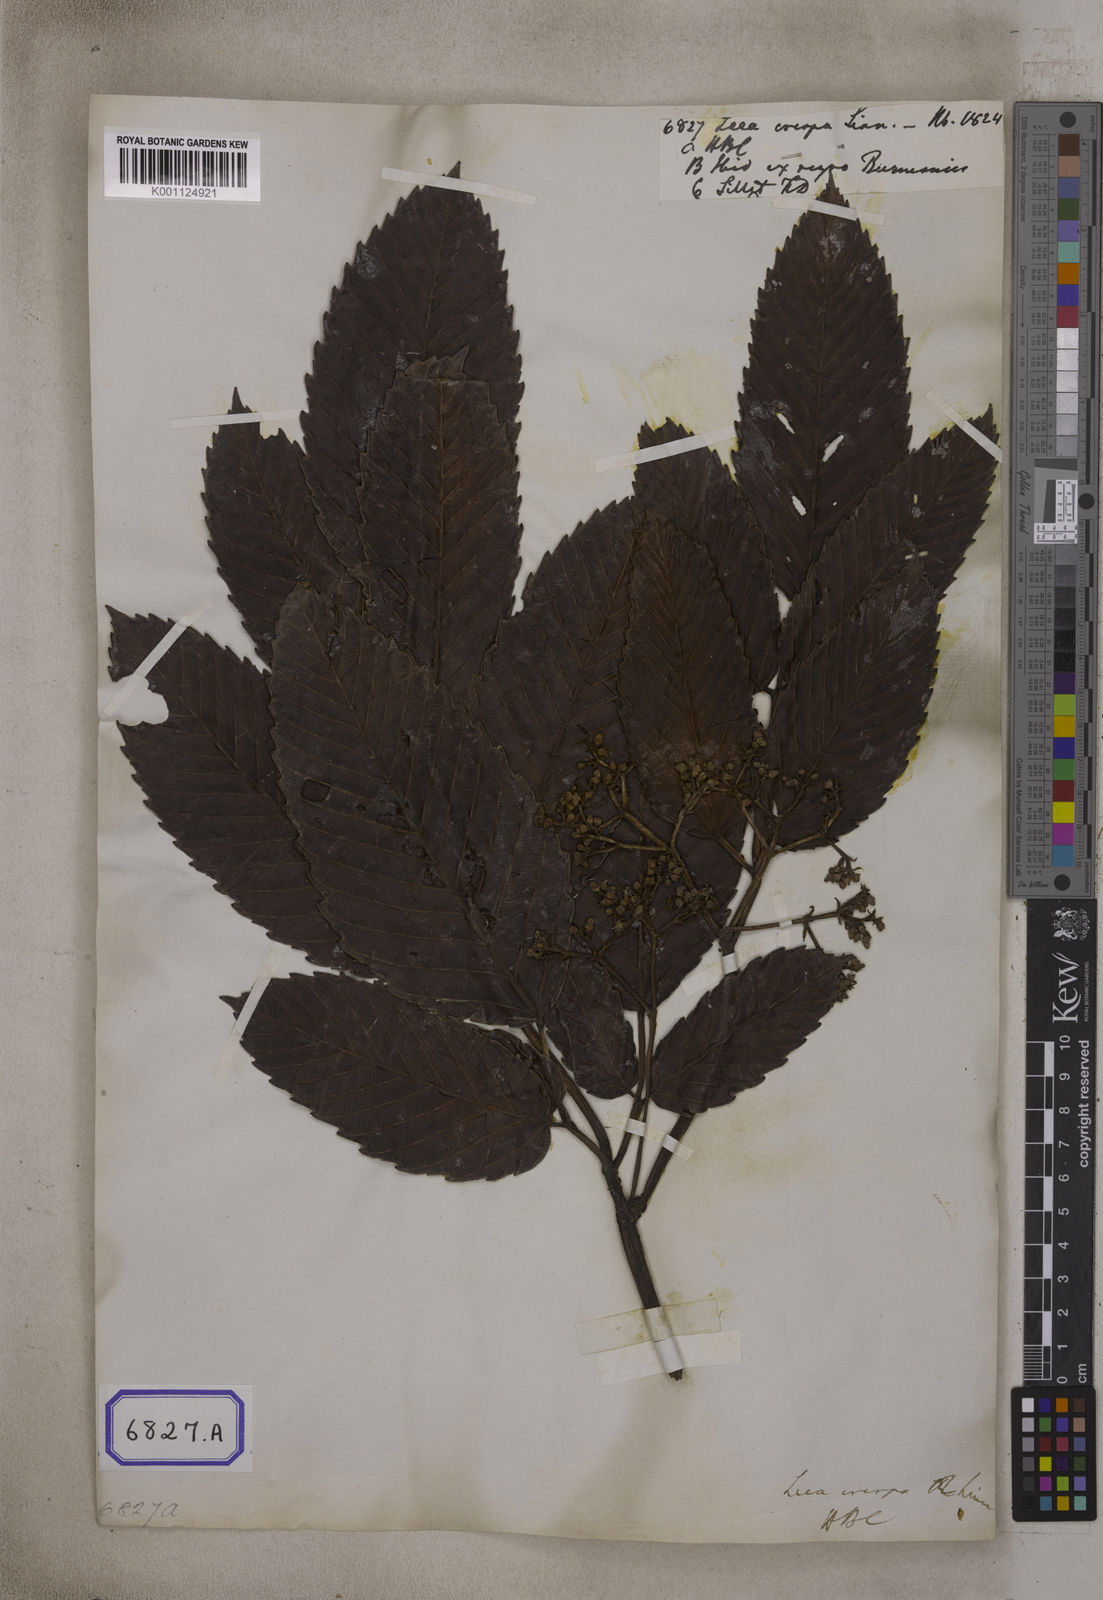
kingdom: Plantae
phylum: Tracheophyta
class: Magnoliopsida
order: Vitales
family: Vitaceae
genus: Leea
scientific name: Leea asiatica
